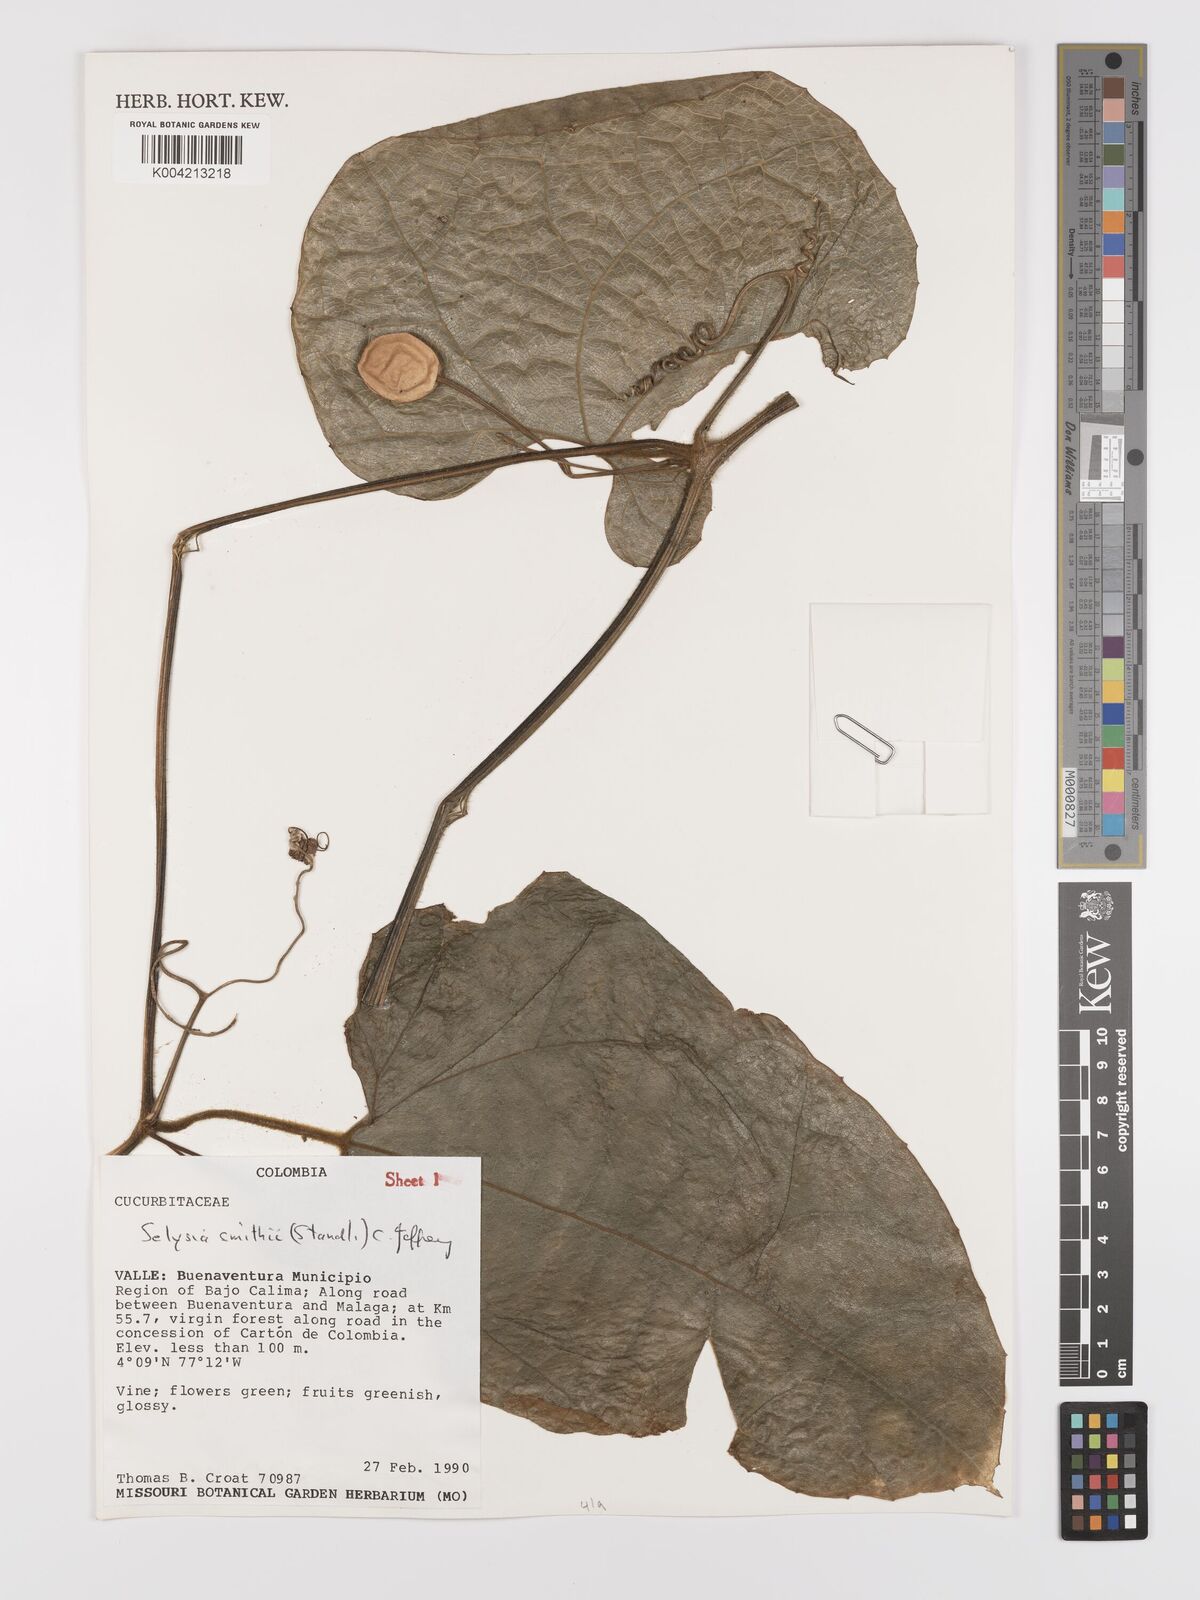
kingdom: Plantae
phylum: Tracheophyta
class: Magnoliopsida
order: Cucurbitales
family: Cucurbitaceae
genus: Cayaponia
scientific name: Cayaponia smithii
